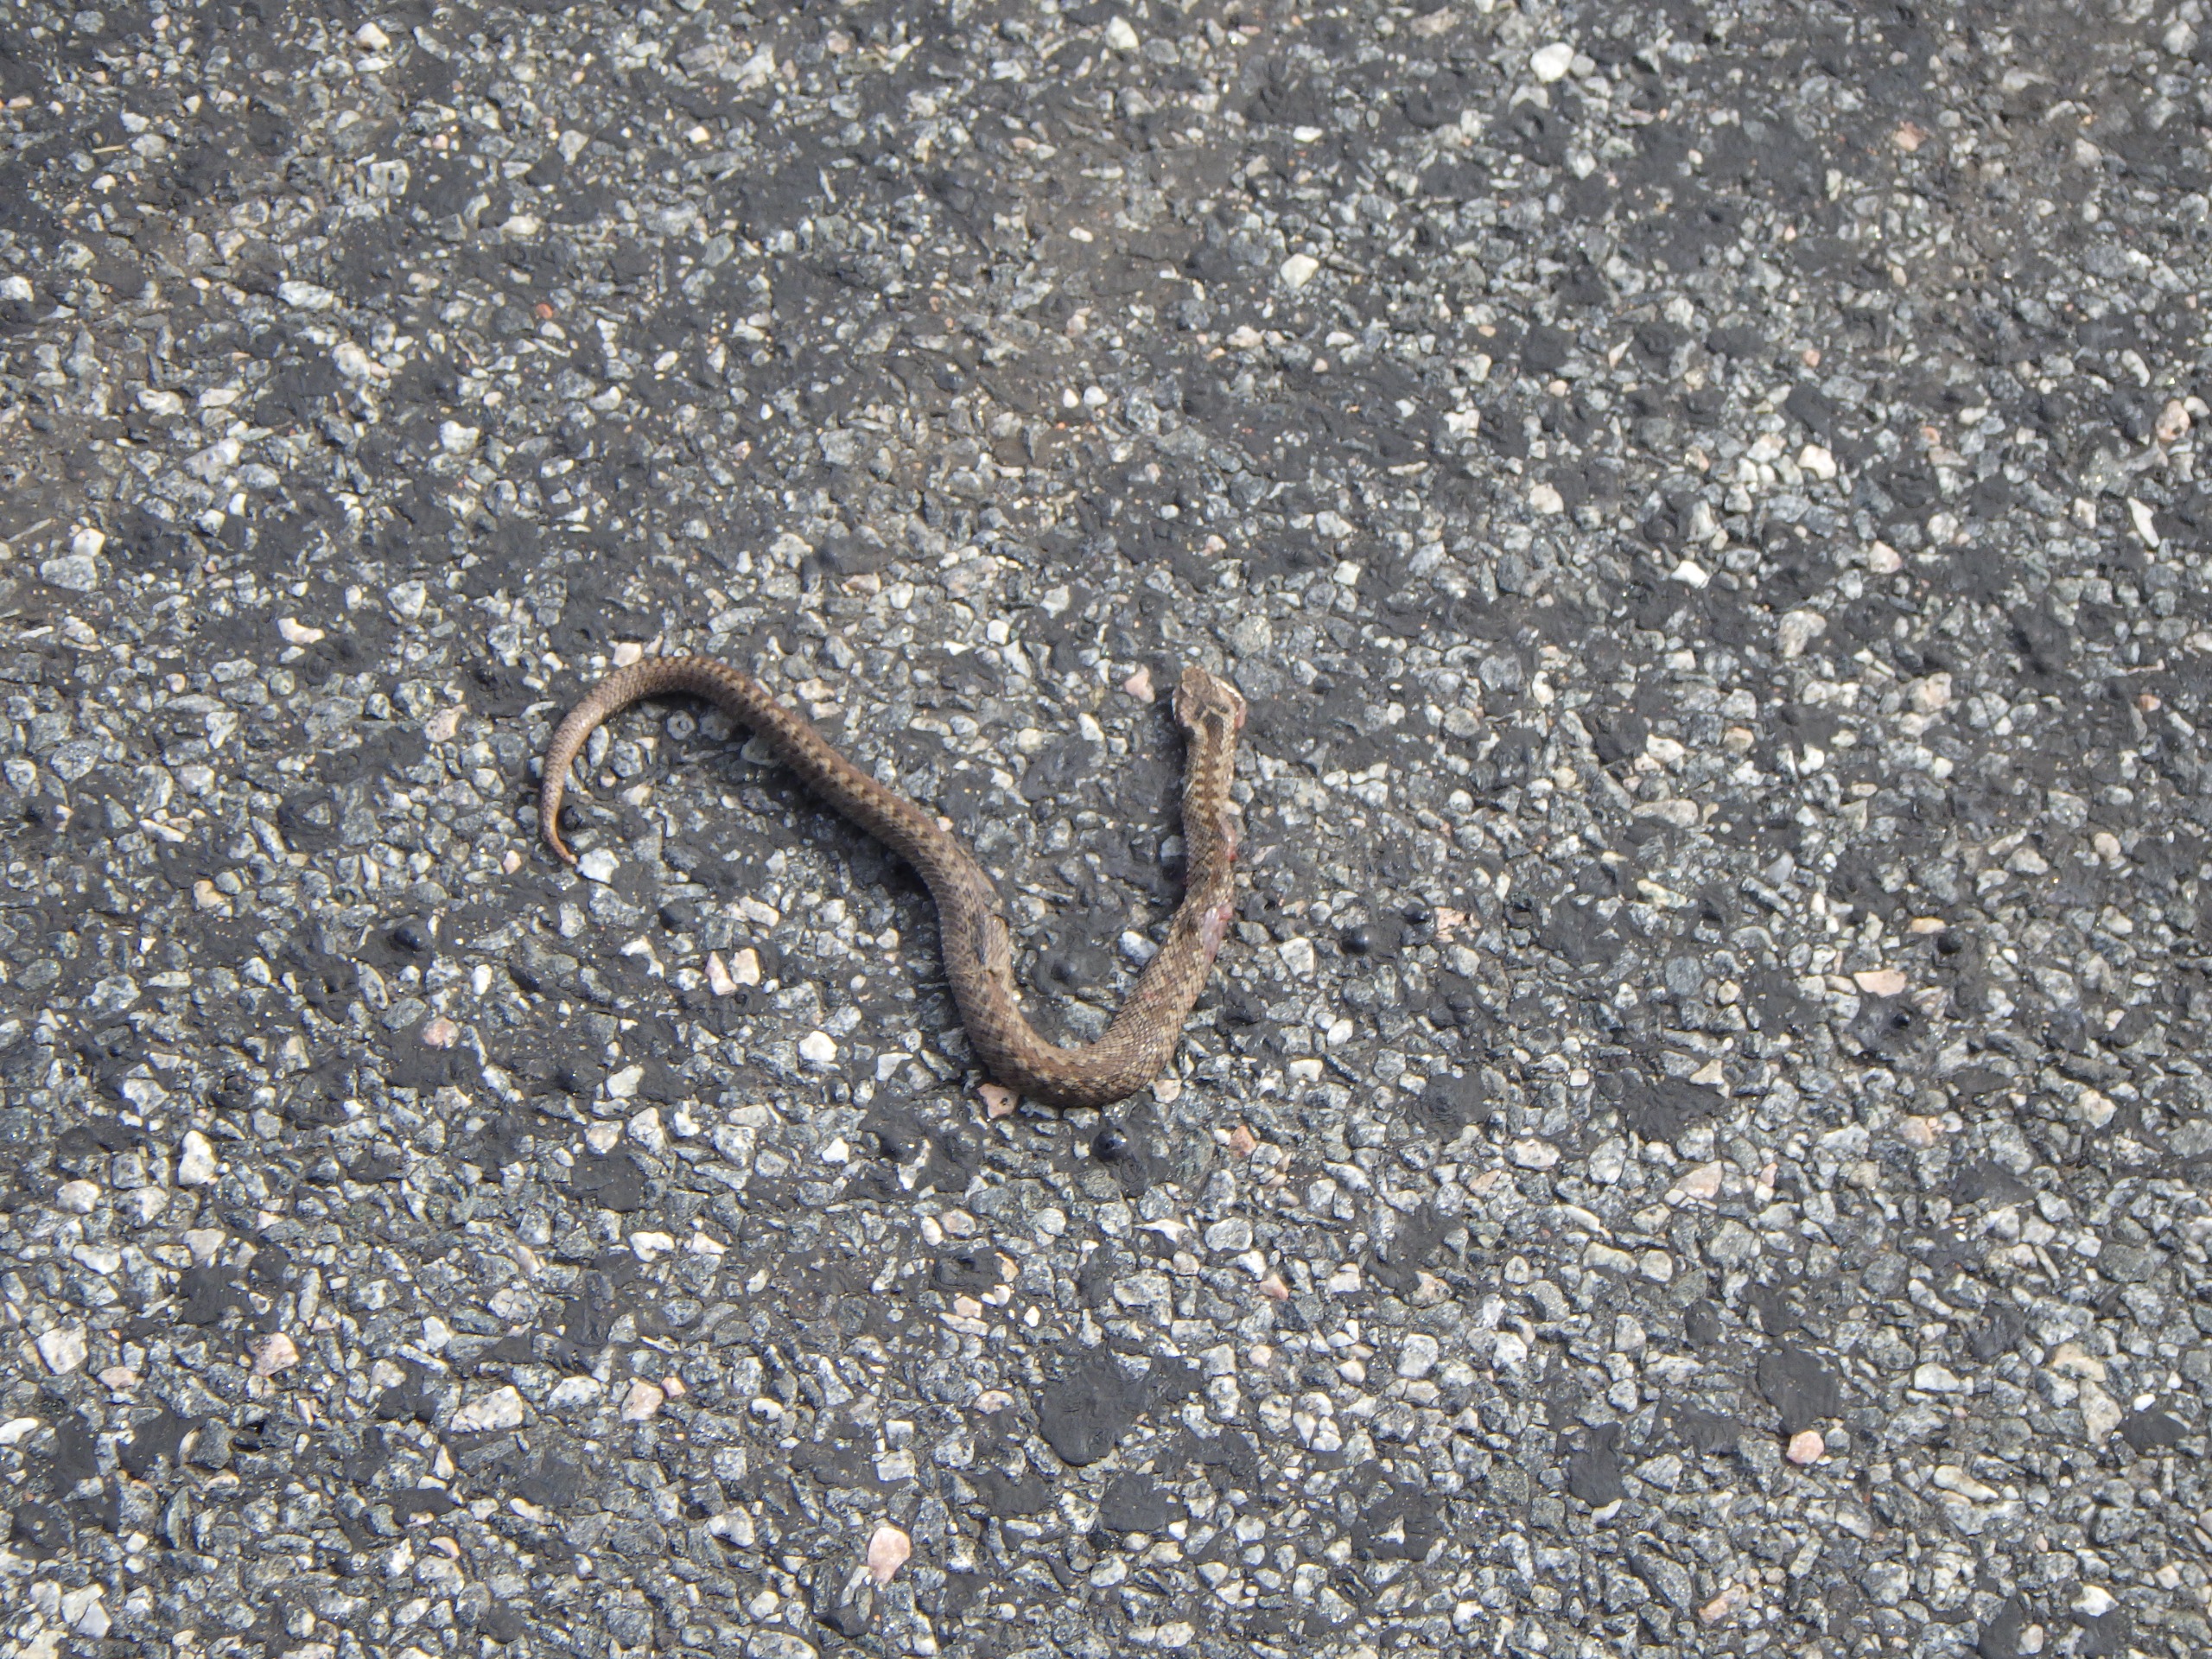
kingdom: Animalia
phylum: Chordata
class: Squamata
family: Viperidae
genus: Vipera
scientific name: Vipera berus
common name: Hugorm
